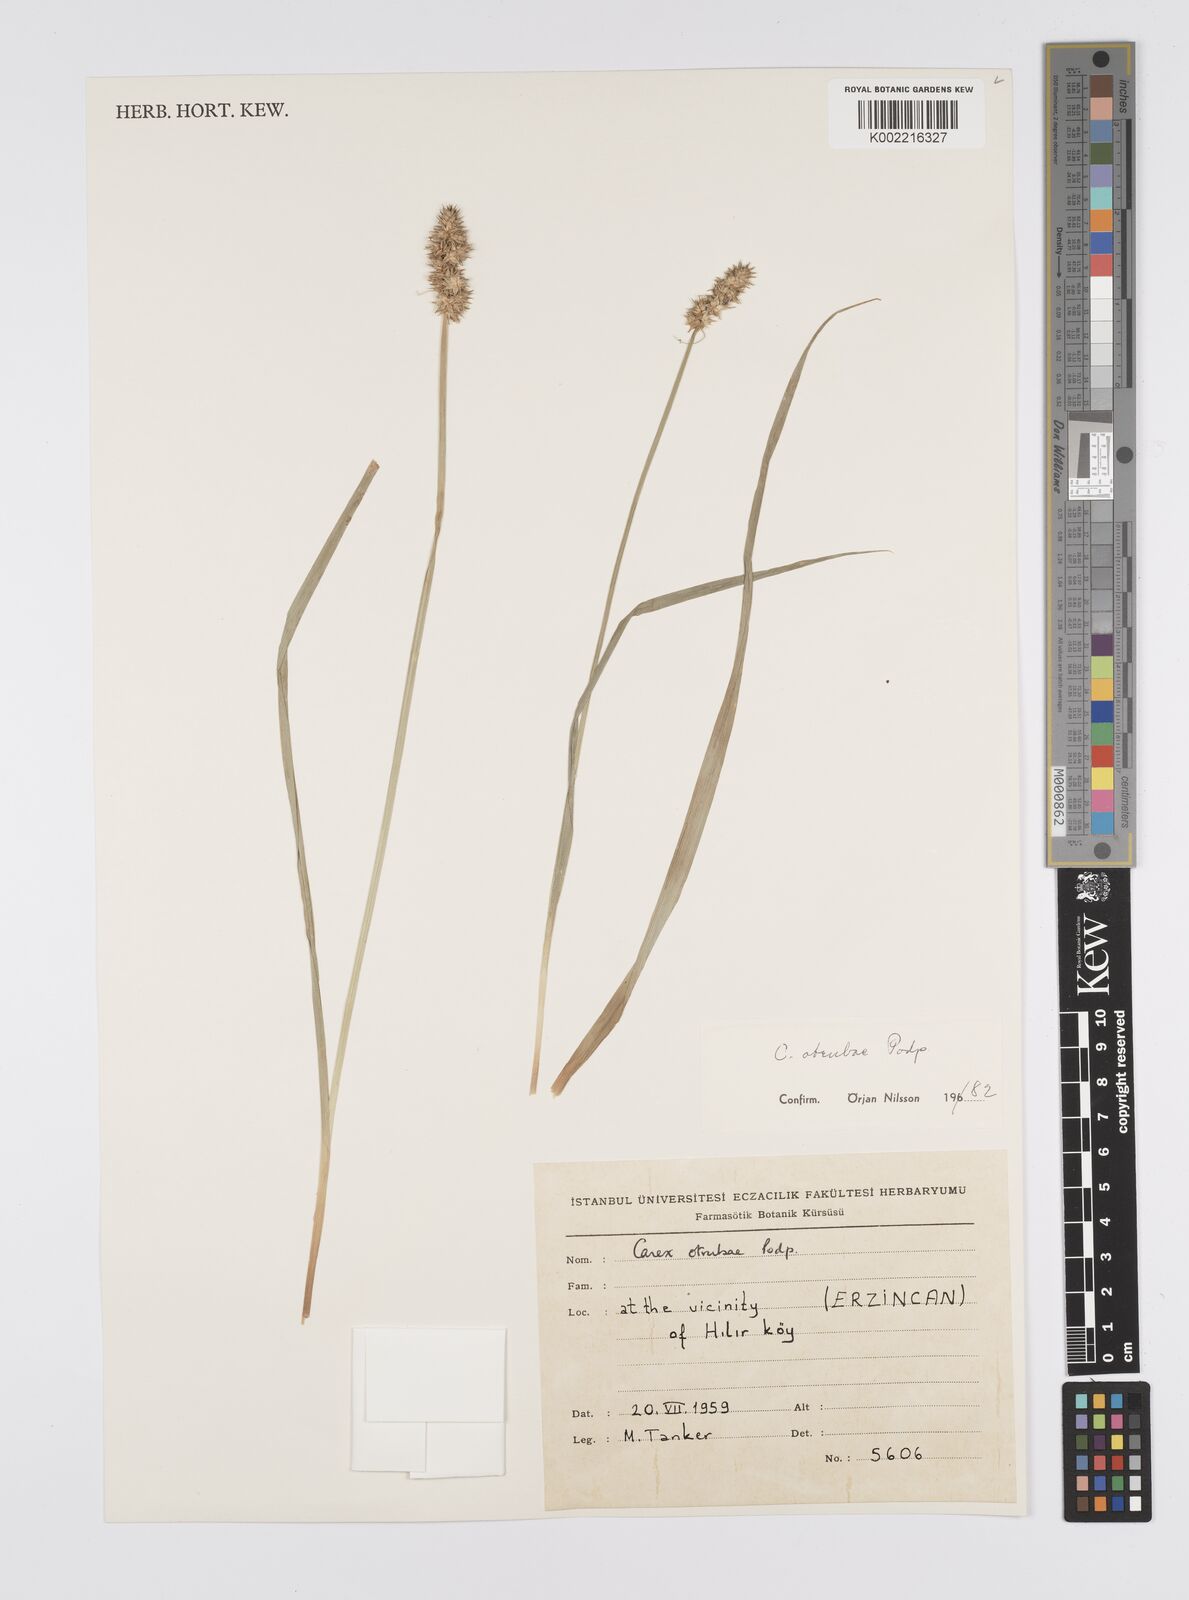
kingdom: Plantae
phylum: Tracheophyta
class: Liliopsida
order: Poales
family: Cyperaceae
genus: Carex
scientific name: Carex otrubae
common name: False fox-sedge
